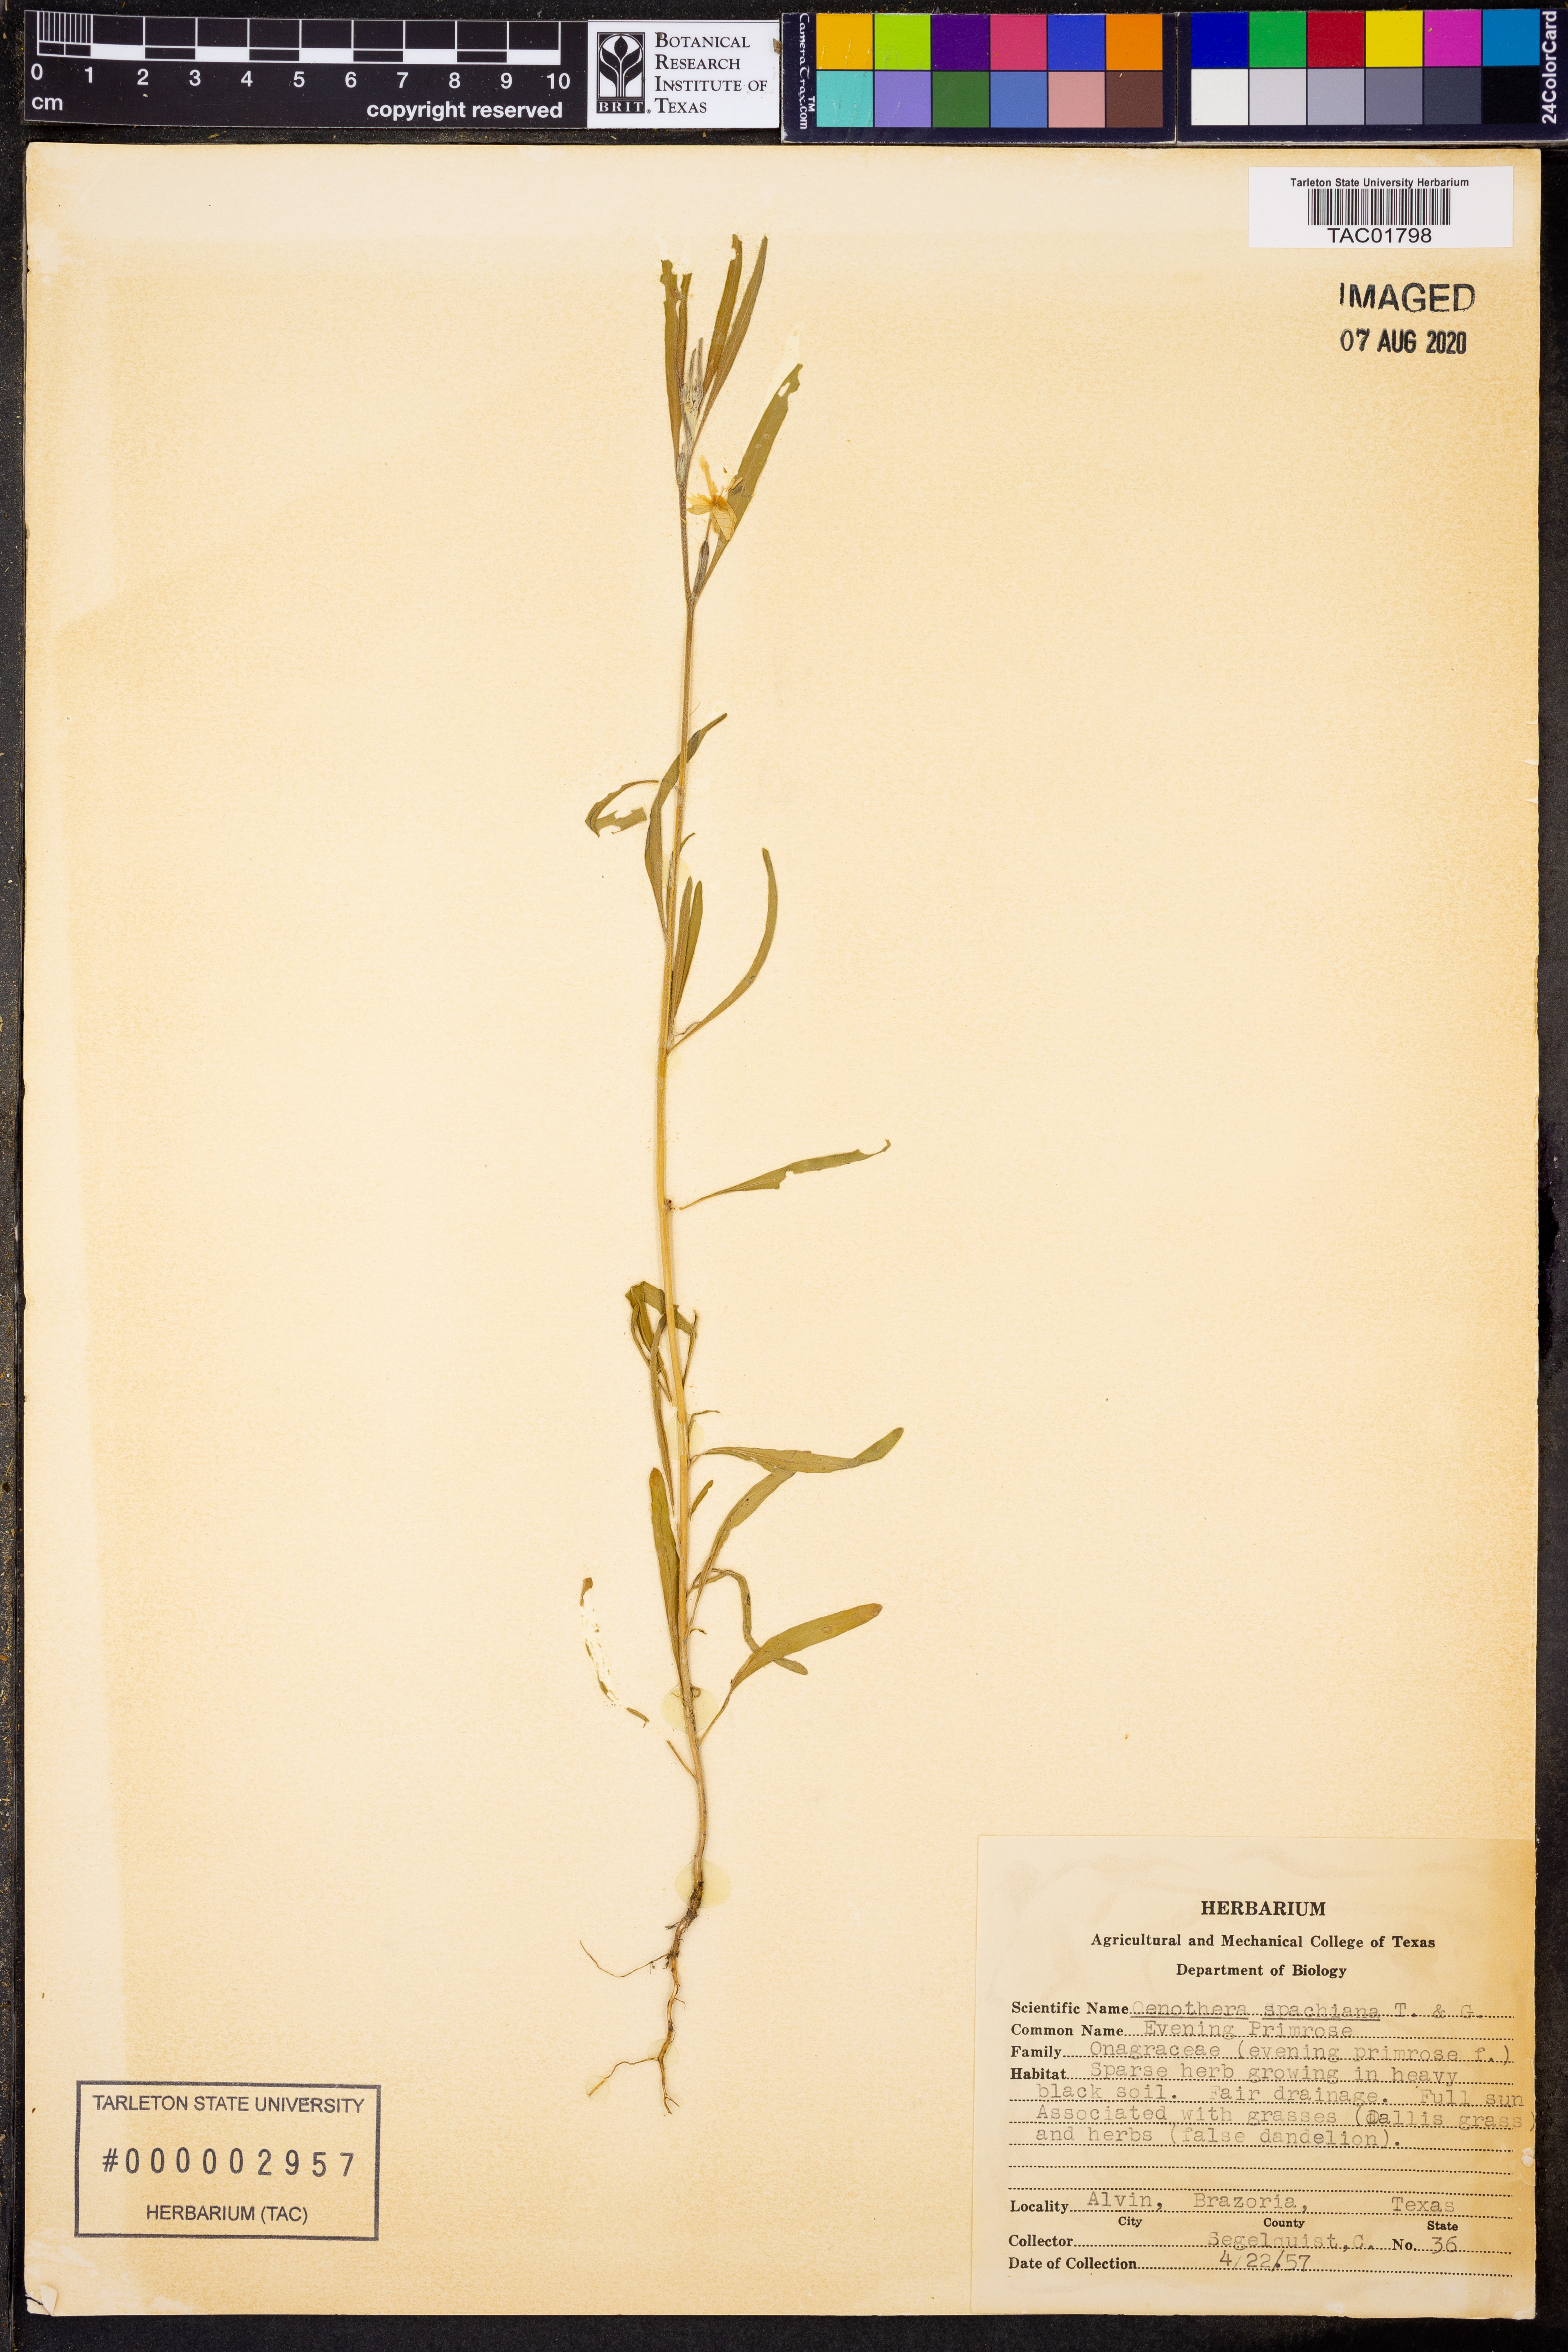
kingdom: Plantae
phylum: Tracheophyta
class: Magnoliopsida
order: Myrtales
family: Onagraceae
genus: Oenothera
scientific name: Oenothera spachiana
